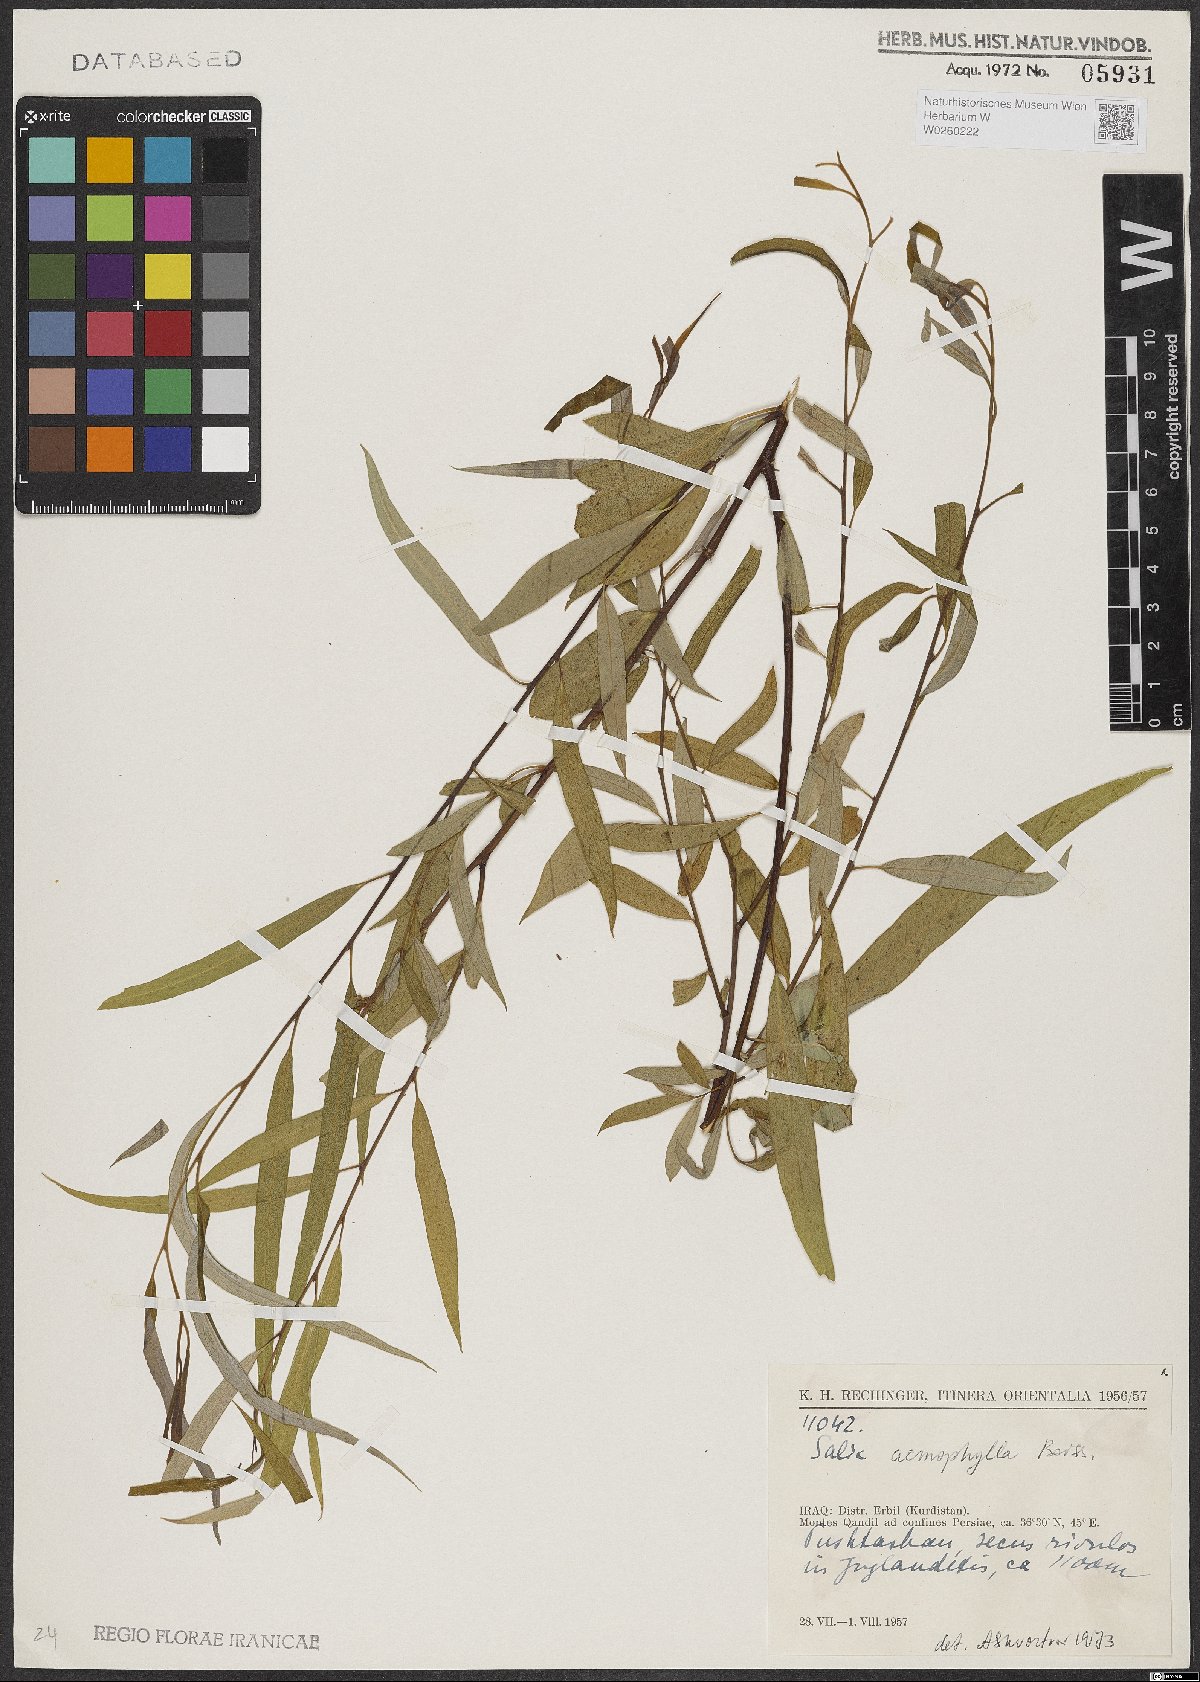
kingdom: Plantae
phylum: Tracheophyta
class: Magnoliopsida
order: Malpighiales
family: Salicaceae
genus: Salix
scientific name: Salix acmophylla
